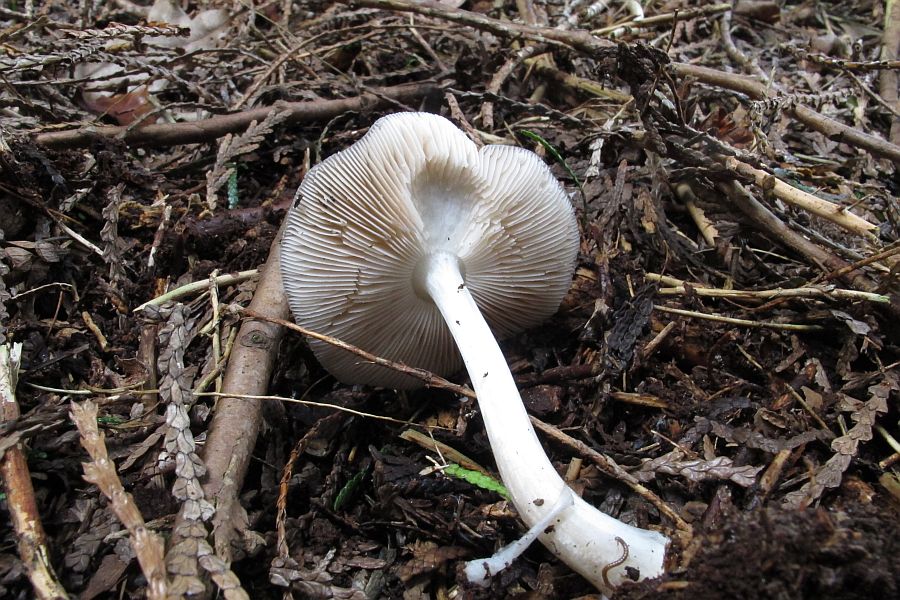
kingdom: Fungi
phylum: Basidiomycota
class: Agaricomycetes
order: Agaricales
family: Pluteaceae
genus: Pluteus
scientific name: Pluteus pouzarianus
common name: plantage-skærmhat
